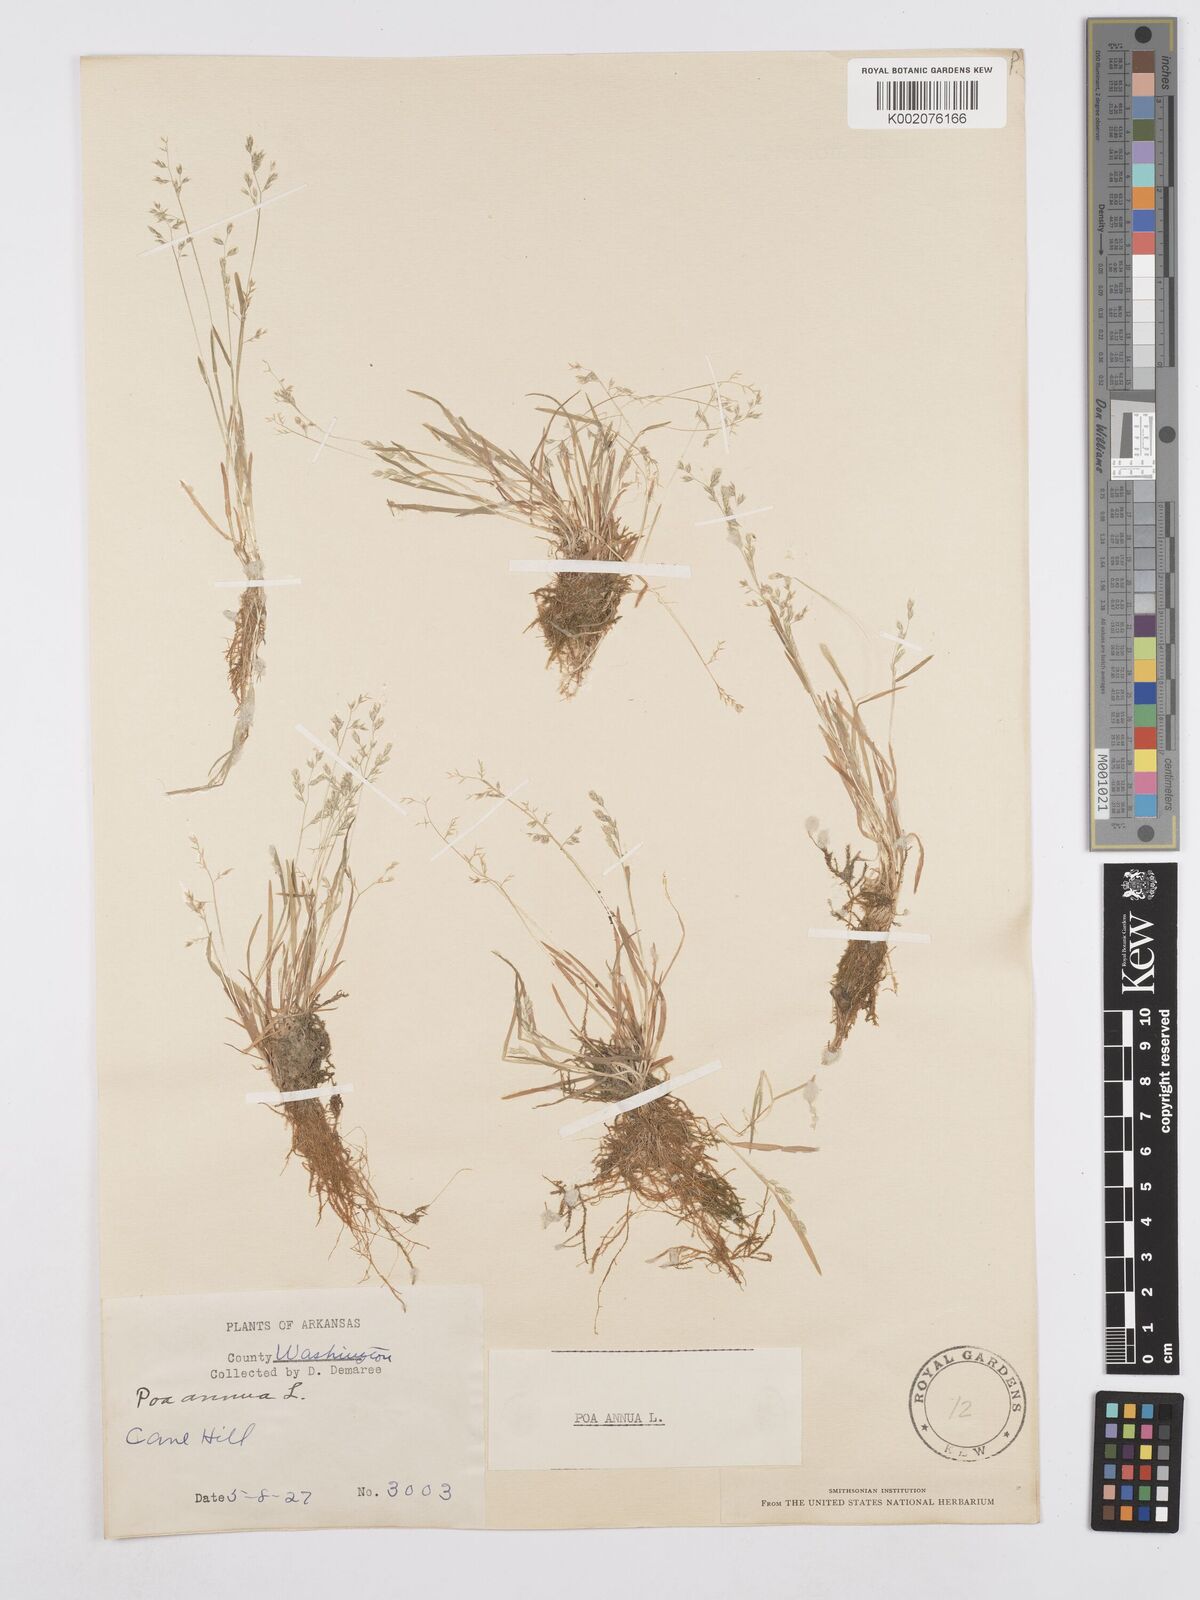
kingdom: Plantae
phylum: Tracheophyta
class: Liliopsida
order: Poales
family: Poaceae
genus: Poa
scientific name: Poa annua
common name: Annual bluegrass
